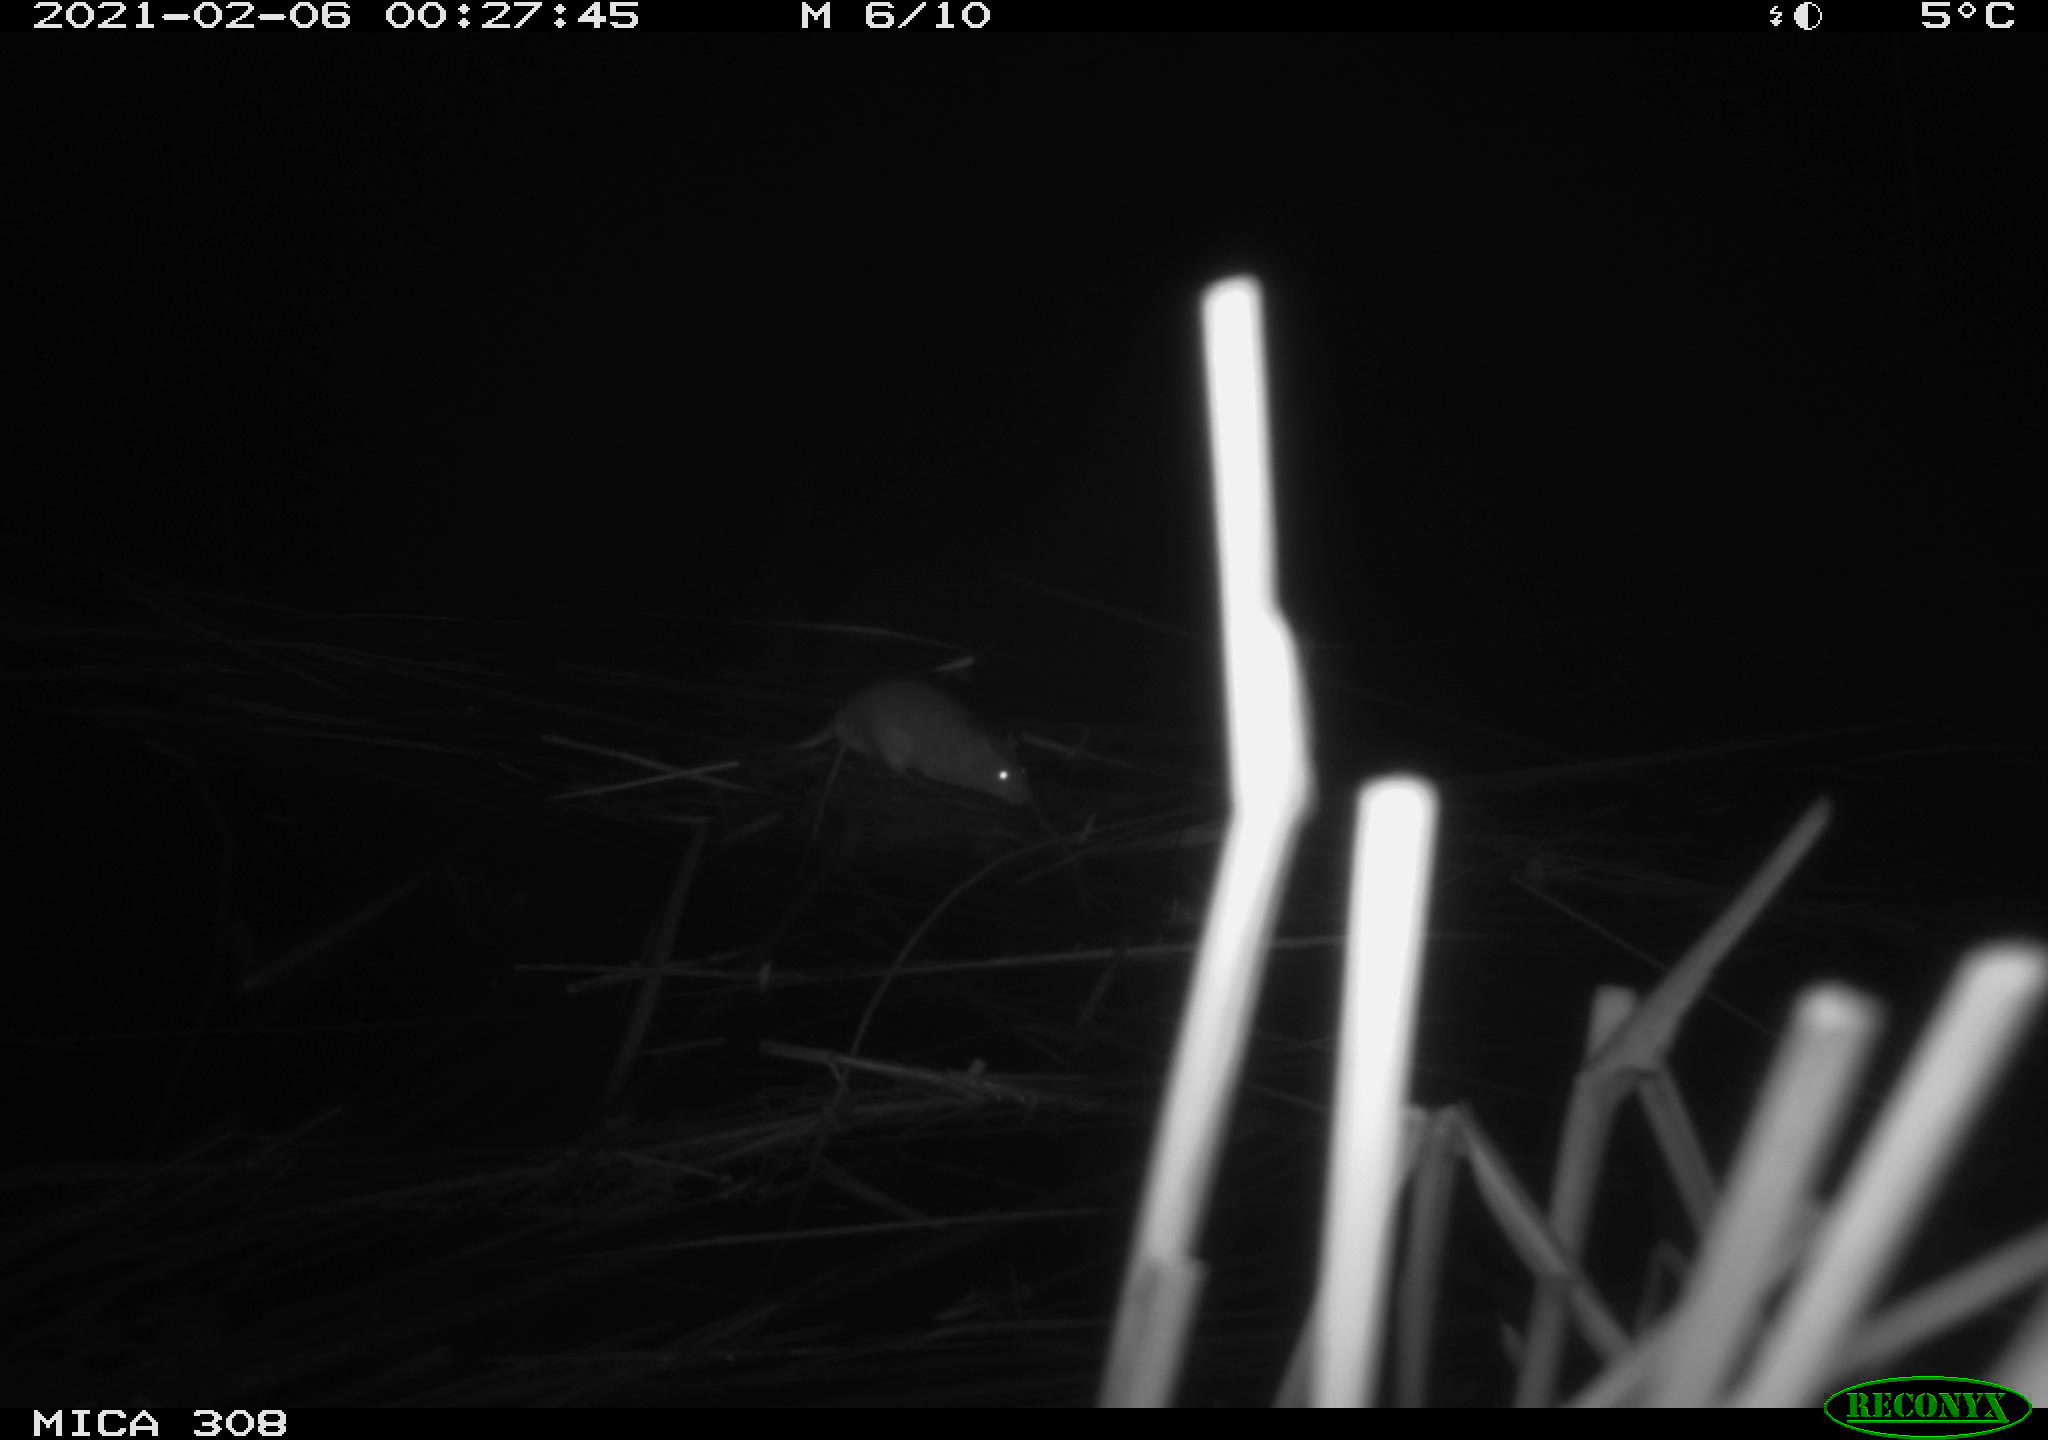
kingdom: Animalia
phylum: Chordata
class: Mammalia
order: Rodentia
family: Muridae
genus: Rattus
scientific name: Rattus norvegicus
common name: Brown rat
